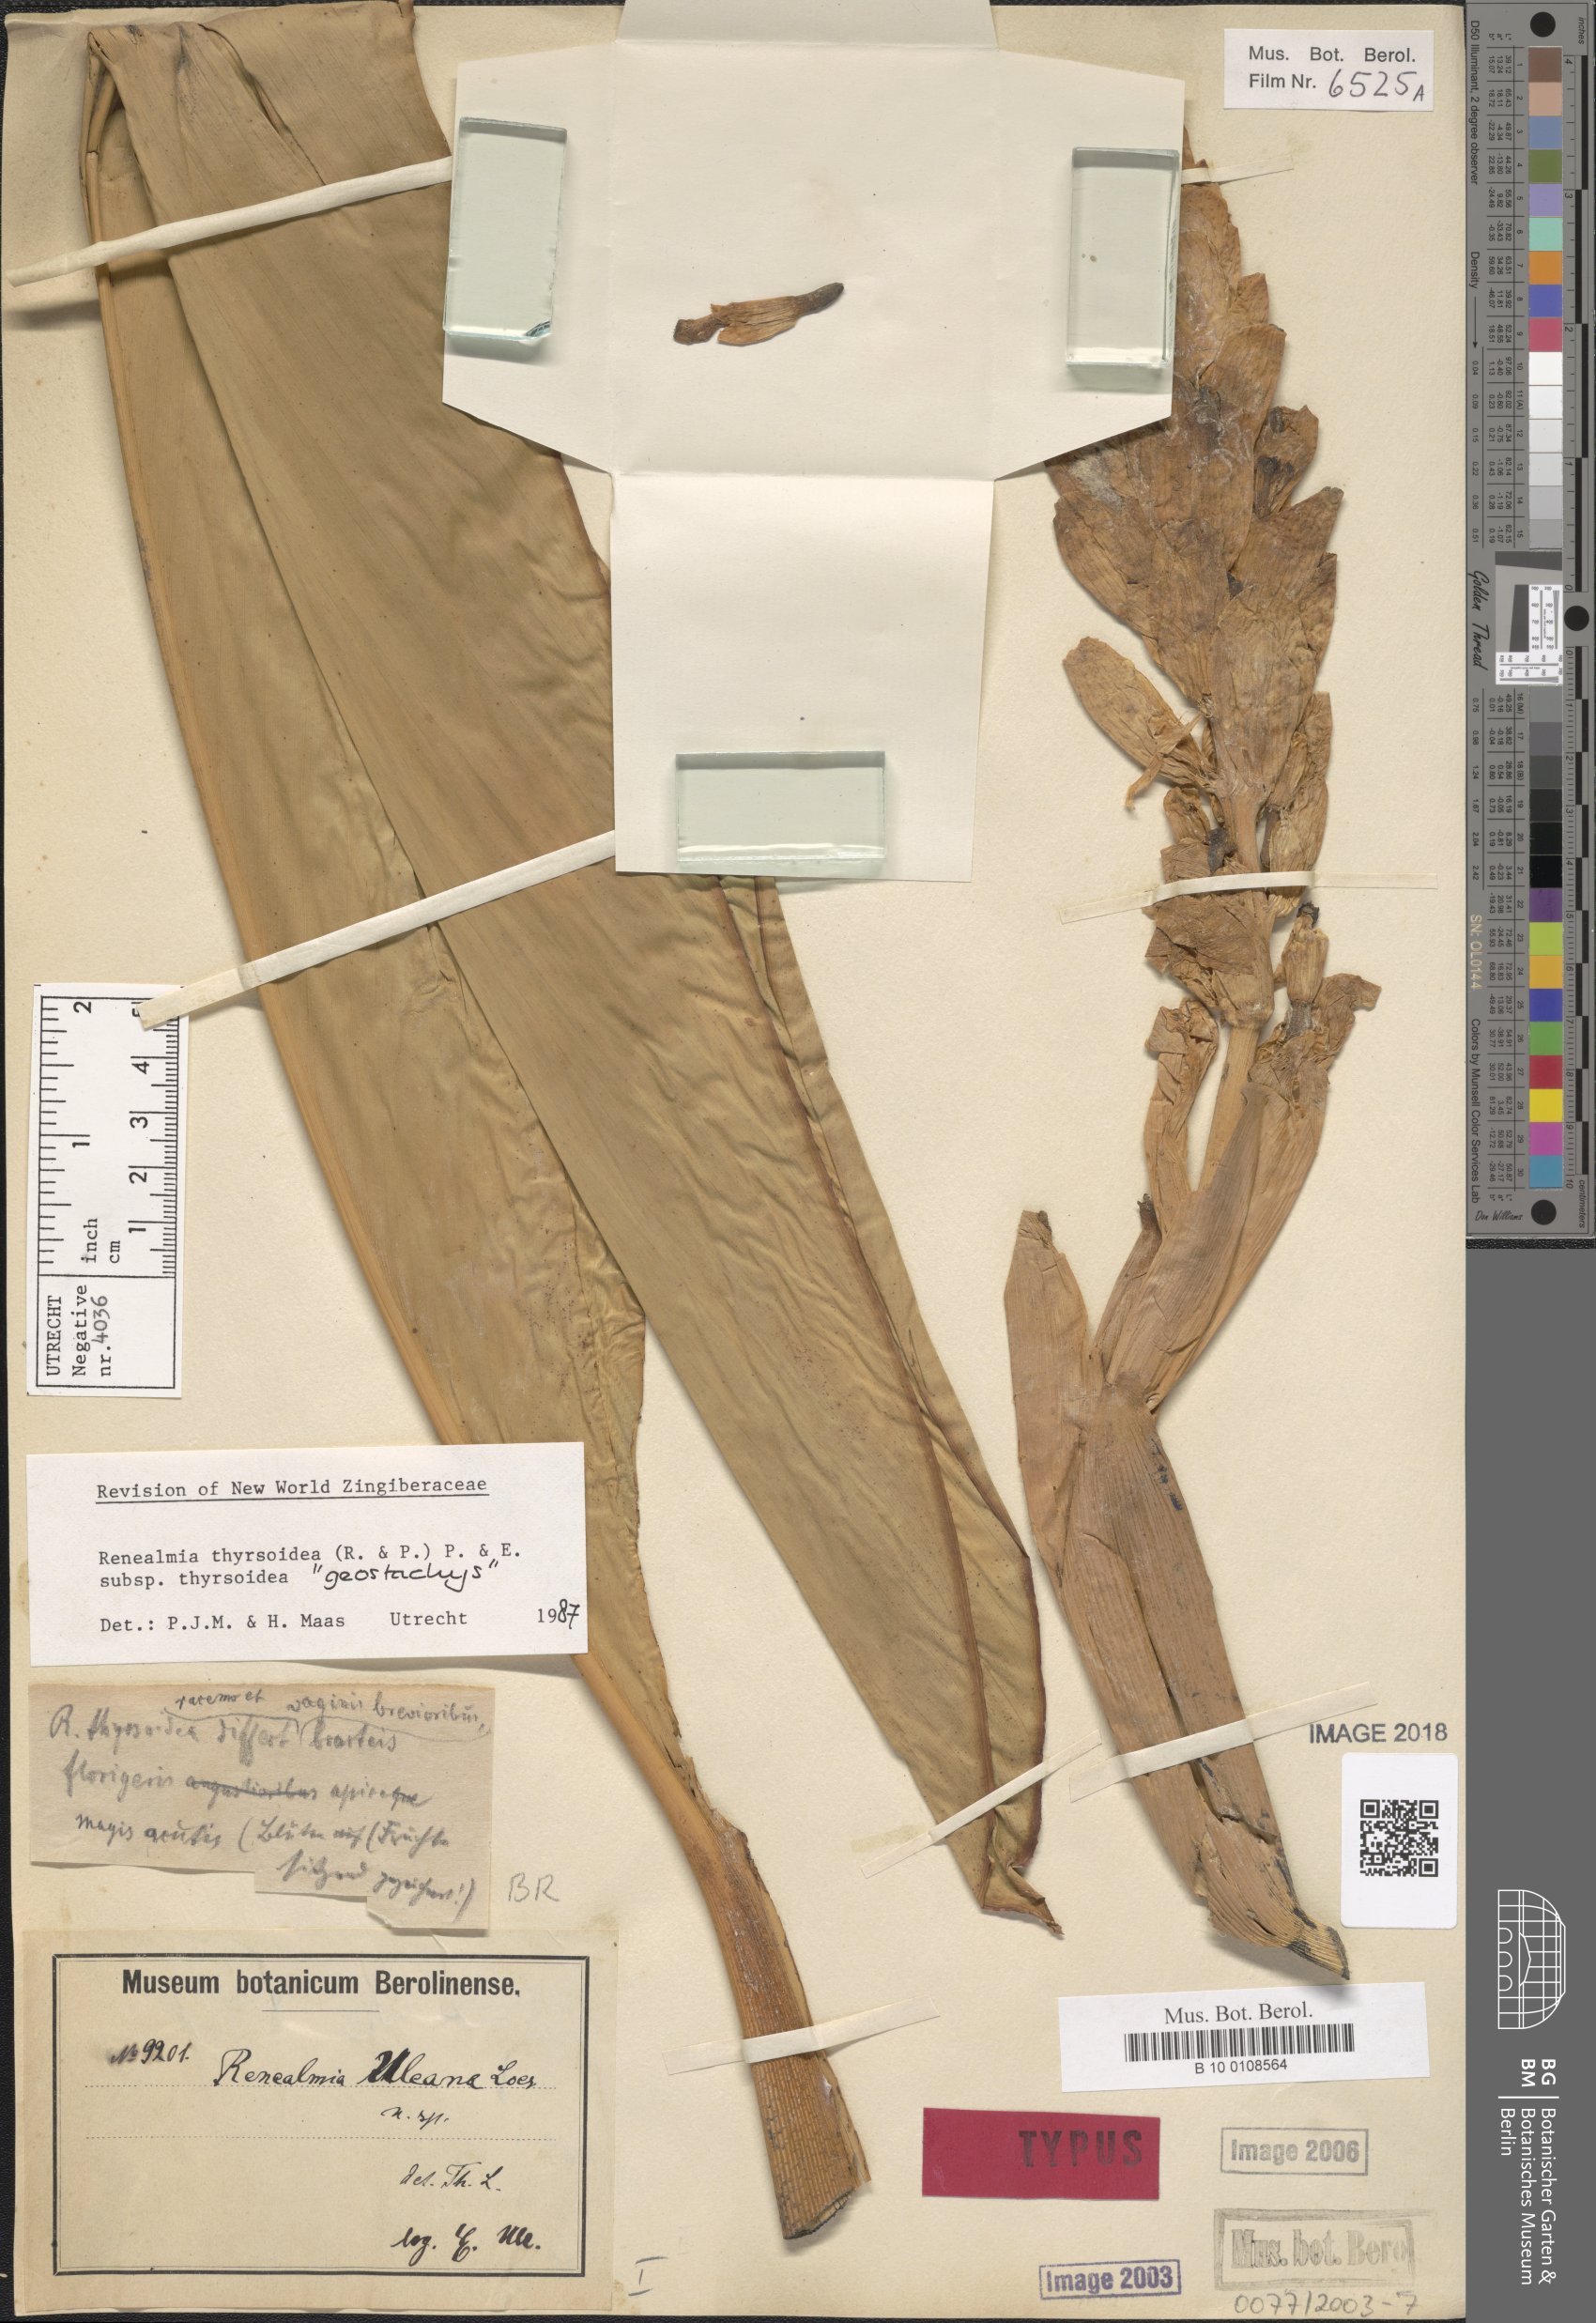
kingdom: Plantae
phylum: Tracheophyta
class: Liliopsida
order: Zingiberales
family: Zingiberaceae
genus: Renealmia
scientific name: Renealmia thyrsoidea
